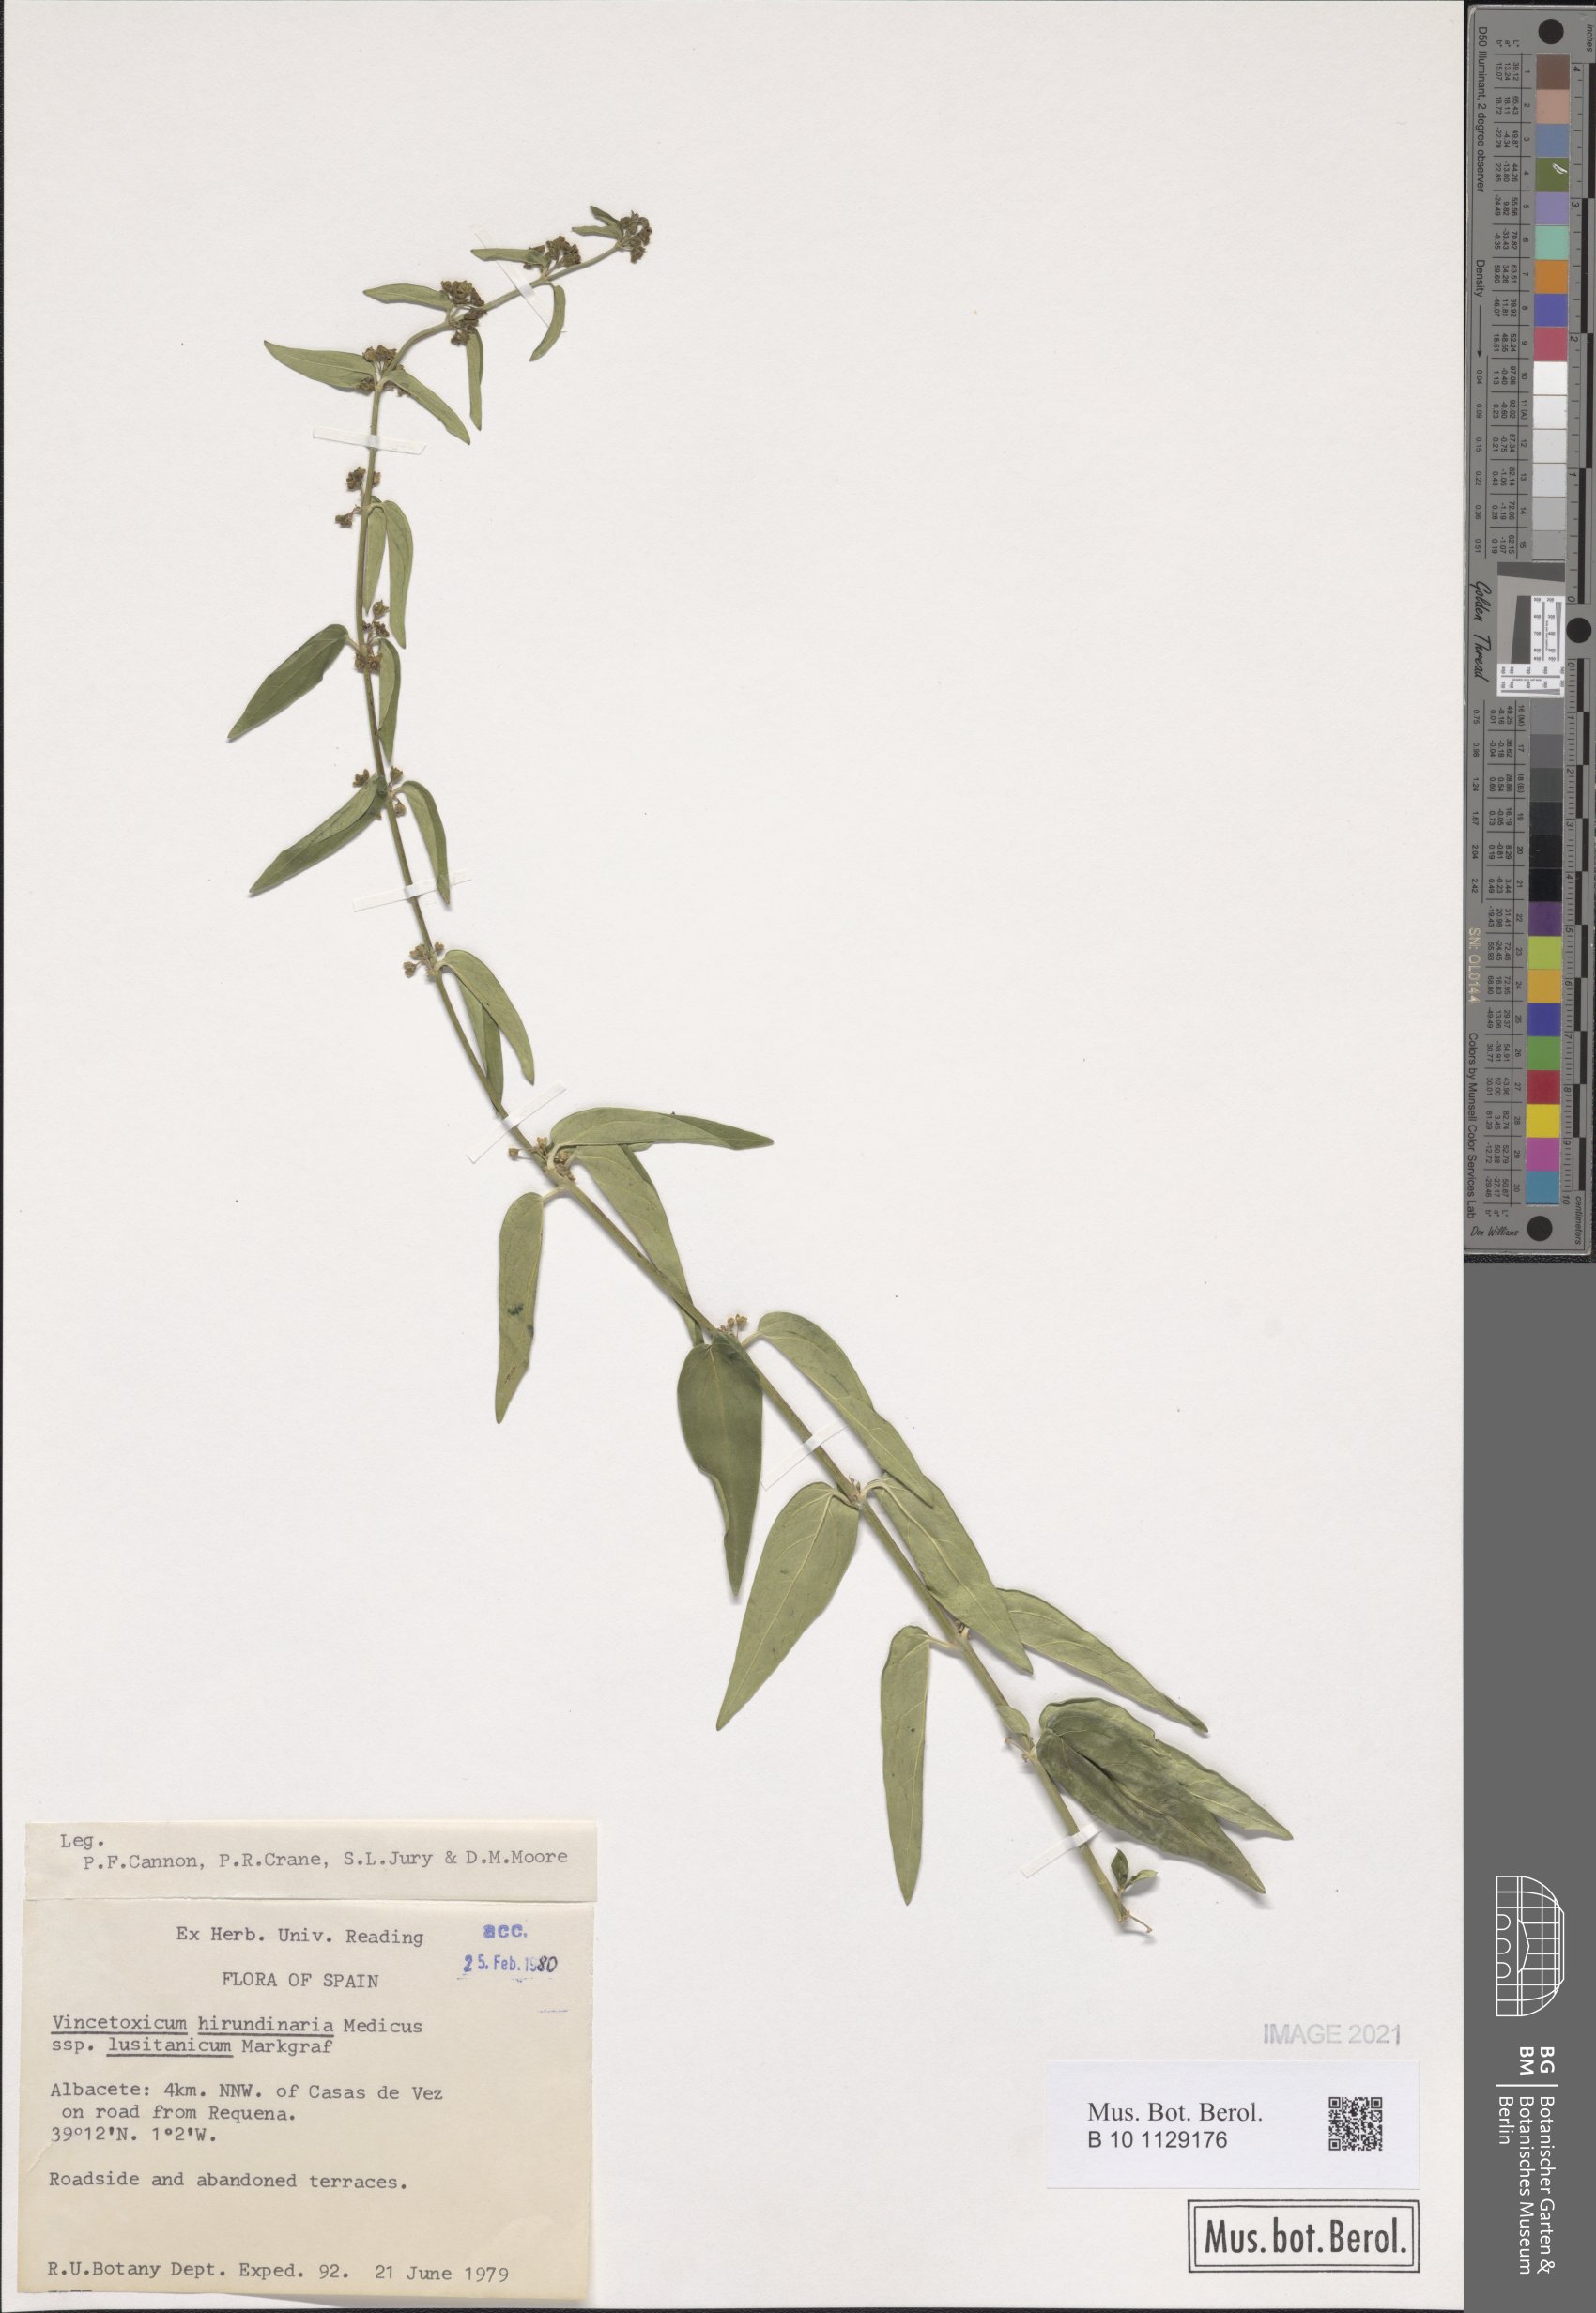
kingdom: Plantae
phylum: Tracheophyta
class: Magnoliopsida
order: Gentianales
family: Apocynaceae
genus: Vincetoxicum
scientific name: Vincetoxicum hirundinaria
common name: White swallowwort
